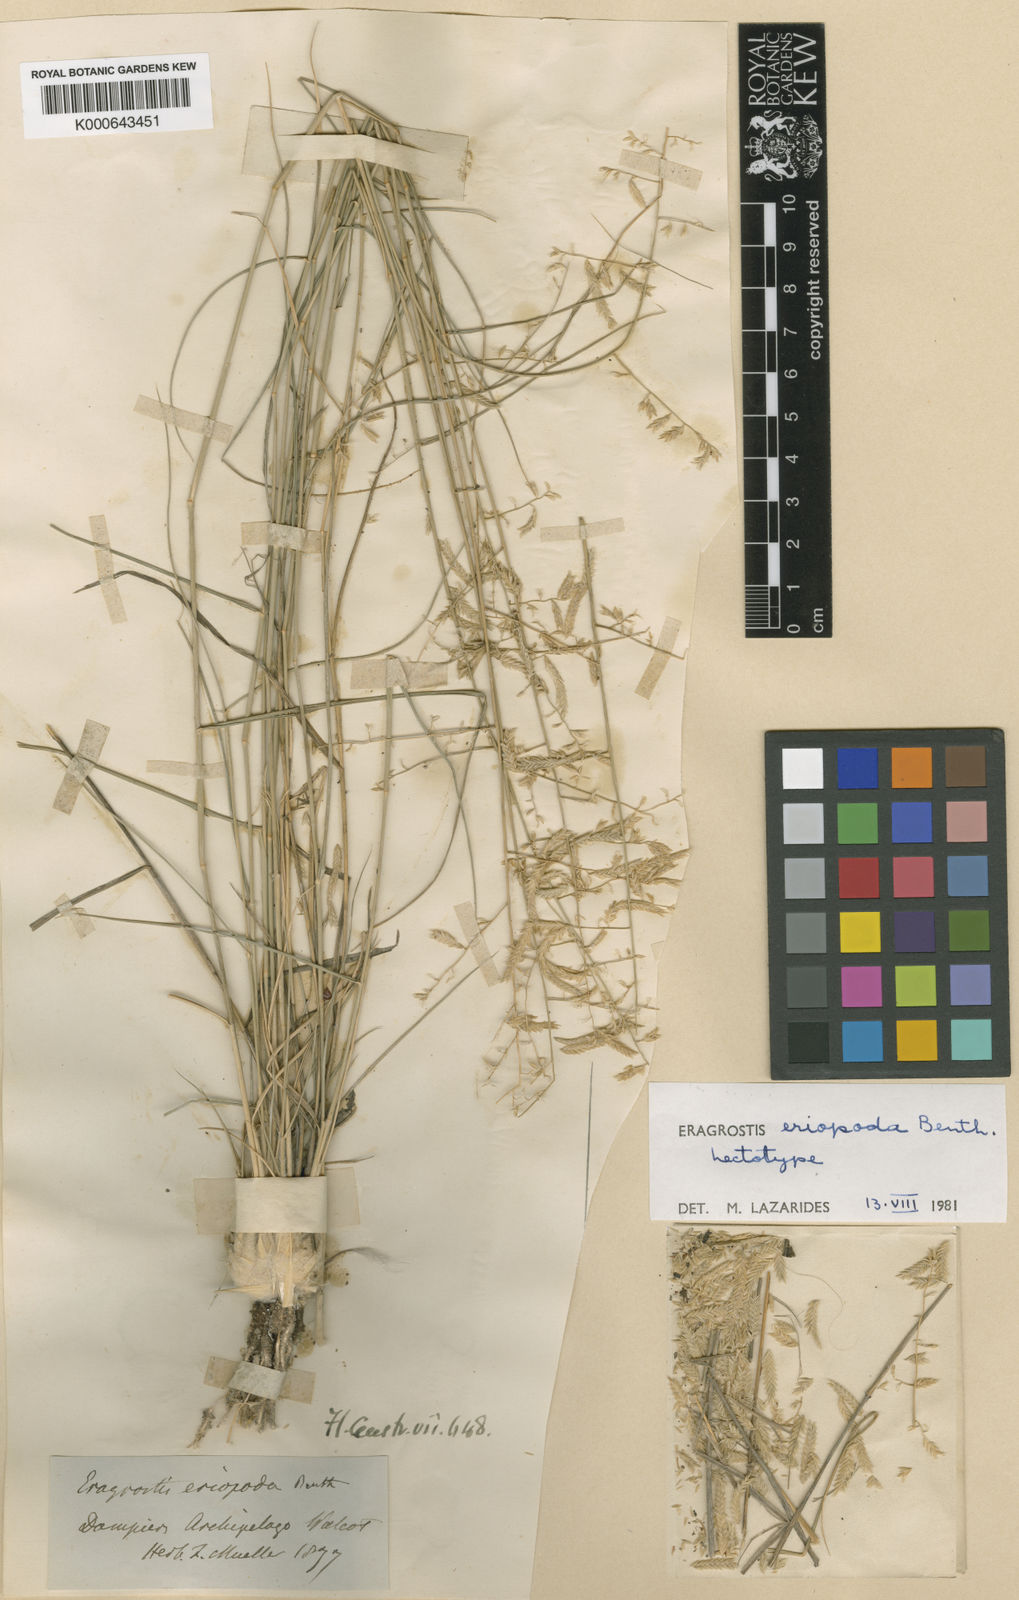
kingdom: Plantae
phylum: Tracheophyta
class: Liliopsida
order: Poales
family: Poaceae
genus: Eragrostis
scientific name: Eragrostis eriopoda
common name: Plain neverfail
